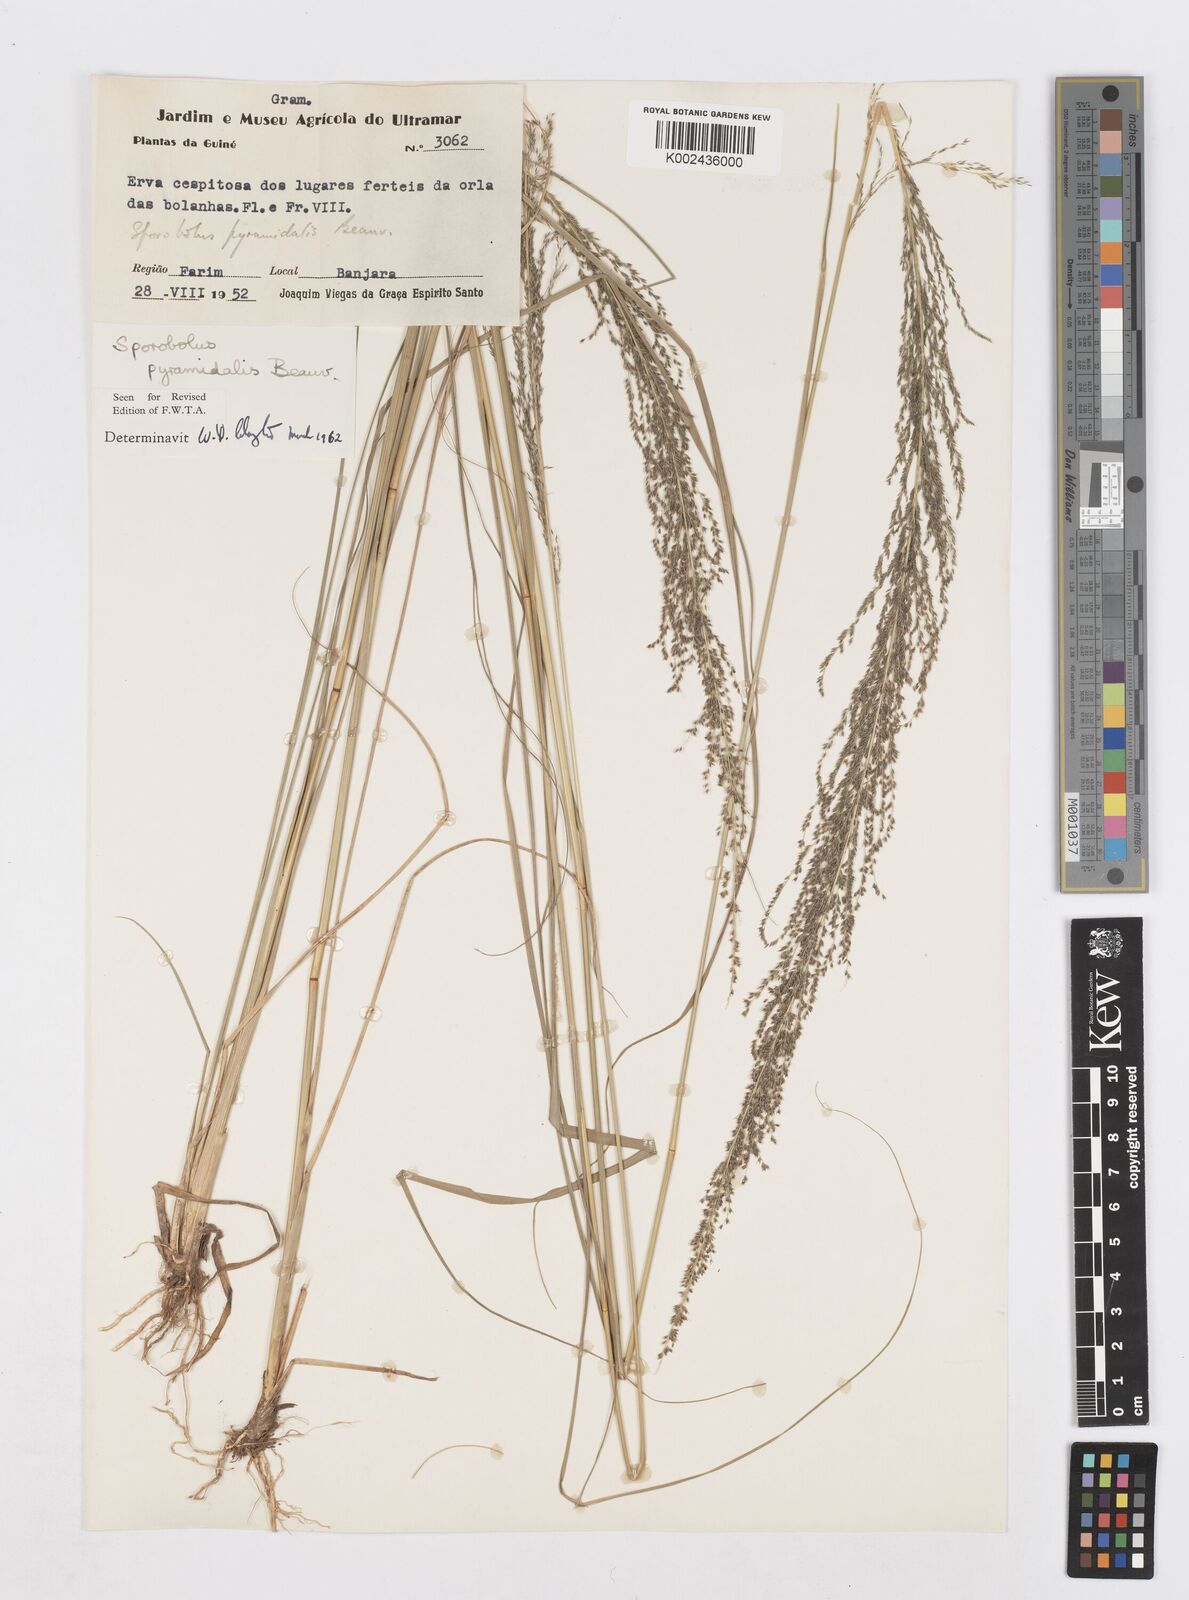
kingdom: Plantae
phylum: Tracheophyta
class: Liliopsida
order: Poales
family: Poaceae
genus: Sporobolus
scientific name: Sporobolus pyramidalis
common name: West indian dropseed
